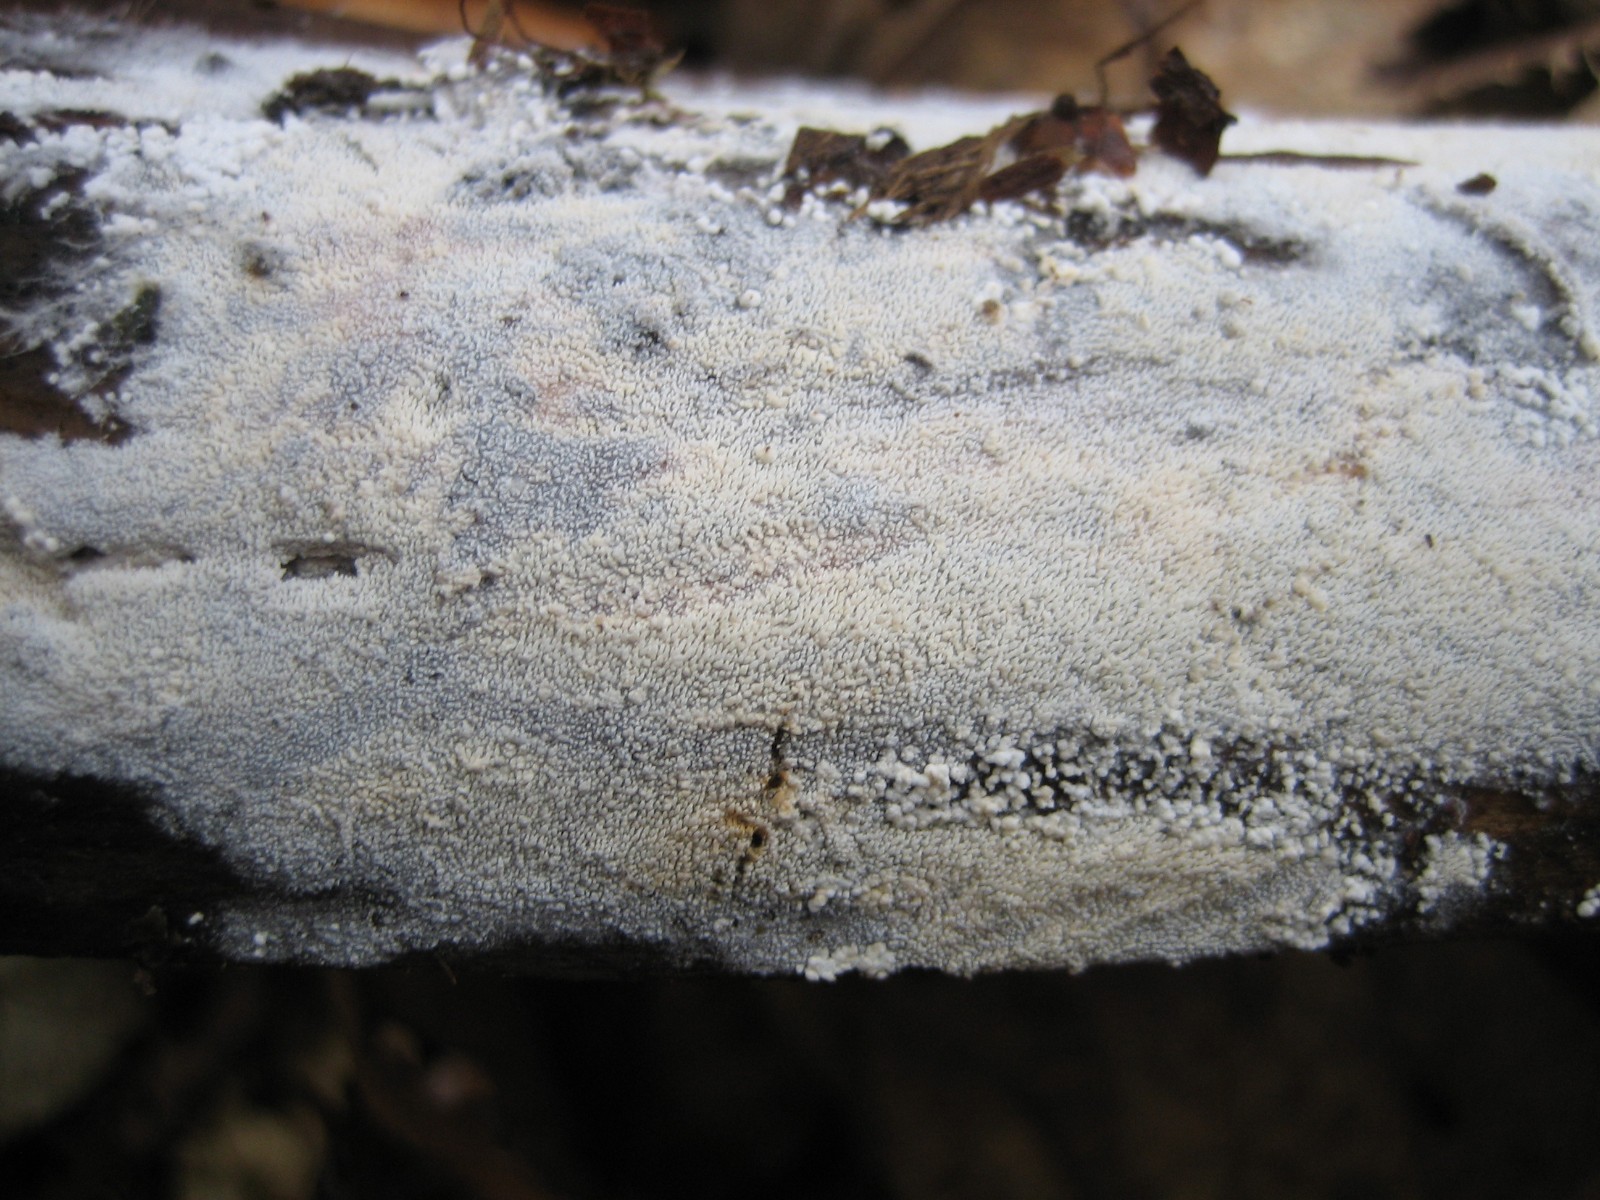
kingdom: Fungi
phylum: Basidiomycota
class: Agaricomycetes
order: Corticiales
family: Corticiaceae
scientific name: Corticiaceae
